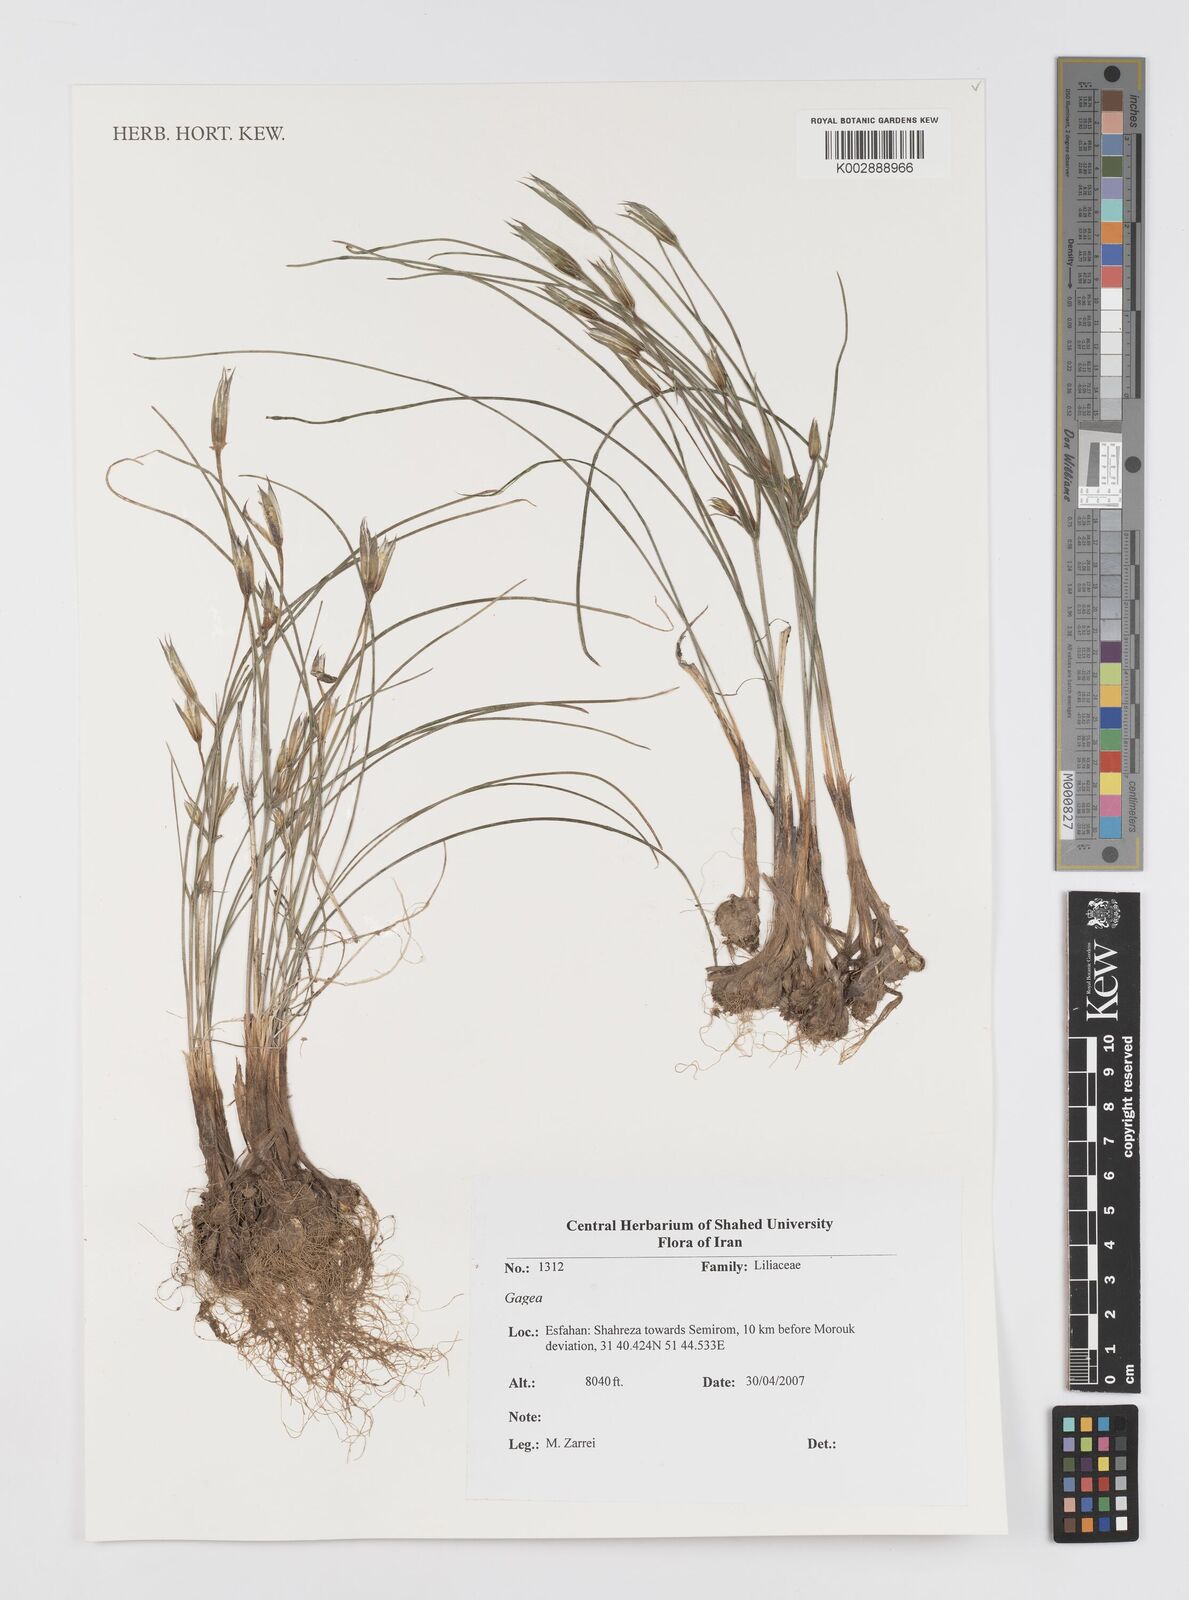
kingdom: Plantae
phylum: Tracheophyta
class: Liliopsida
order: Liliales
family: Liliaceae
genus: Gagea
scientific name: Gagea
